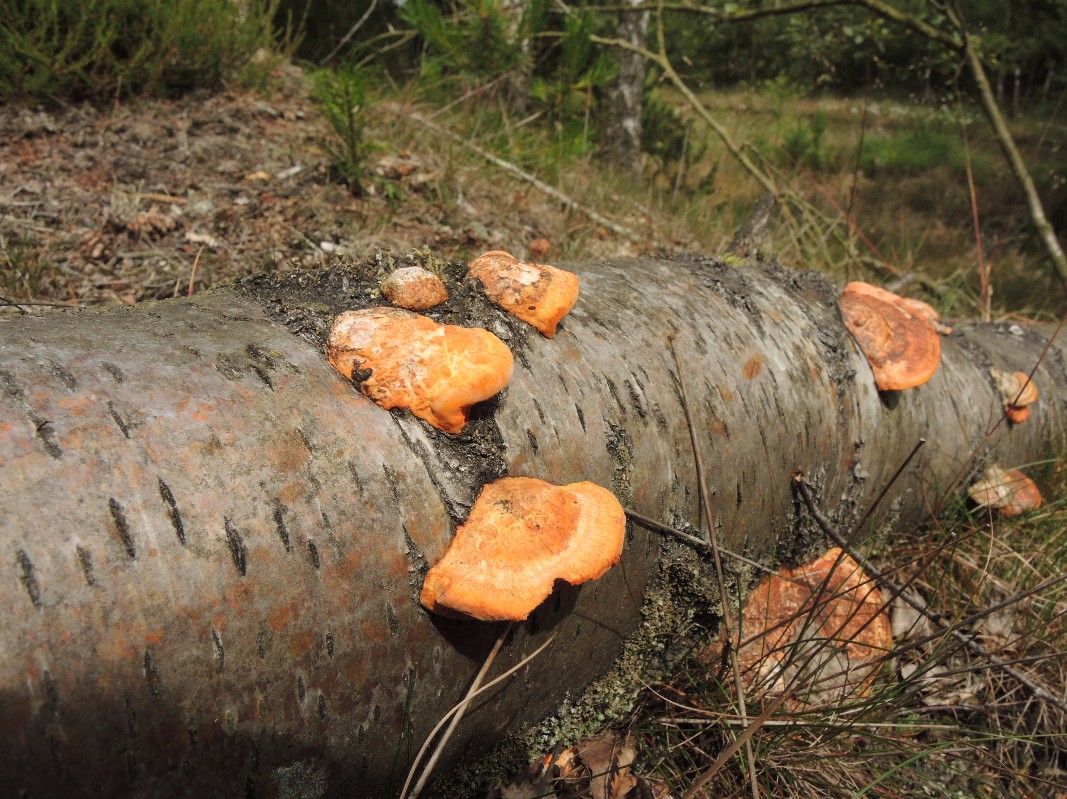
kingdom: Fungi
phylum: Basidiomycota
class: Agaricomycetes
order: Polyporales
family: Polyporaceae
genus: Trametes
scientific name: Trametes cinnabarina
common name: cinnoberporesvamp
